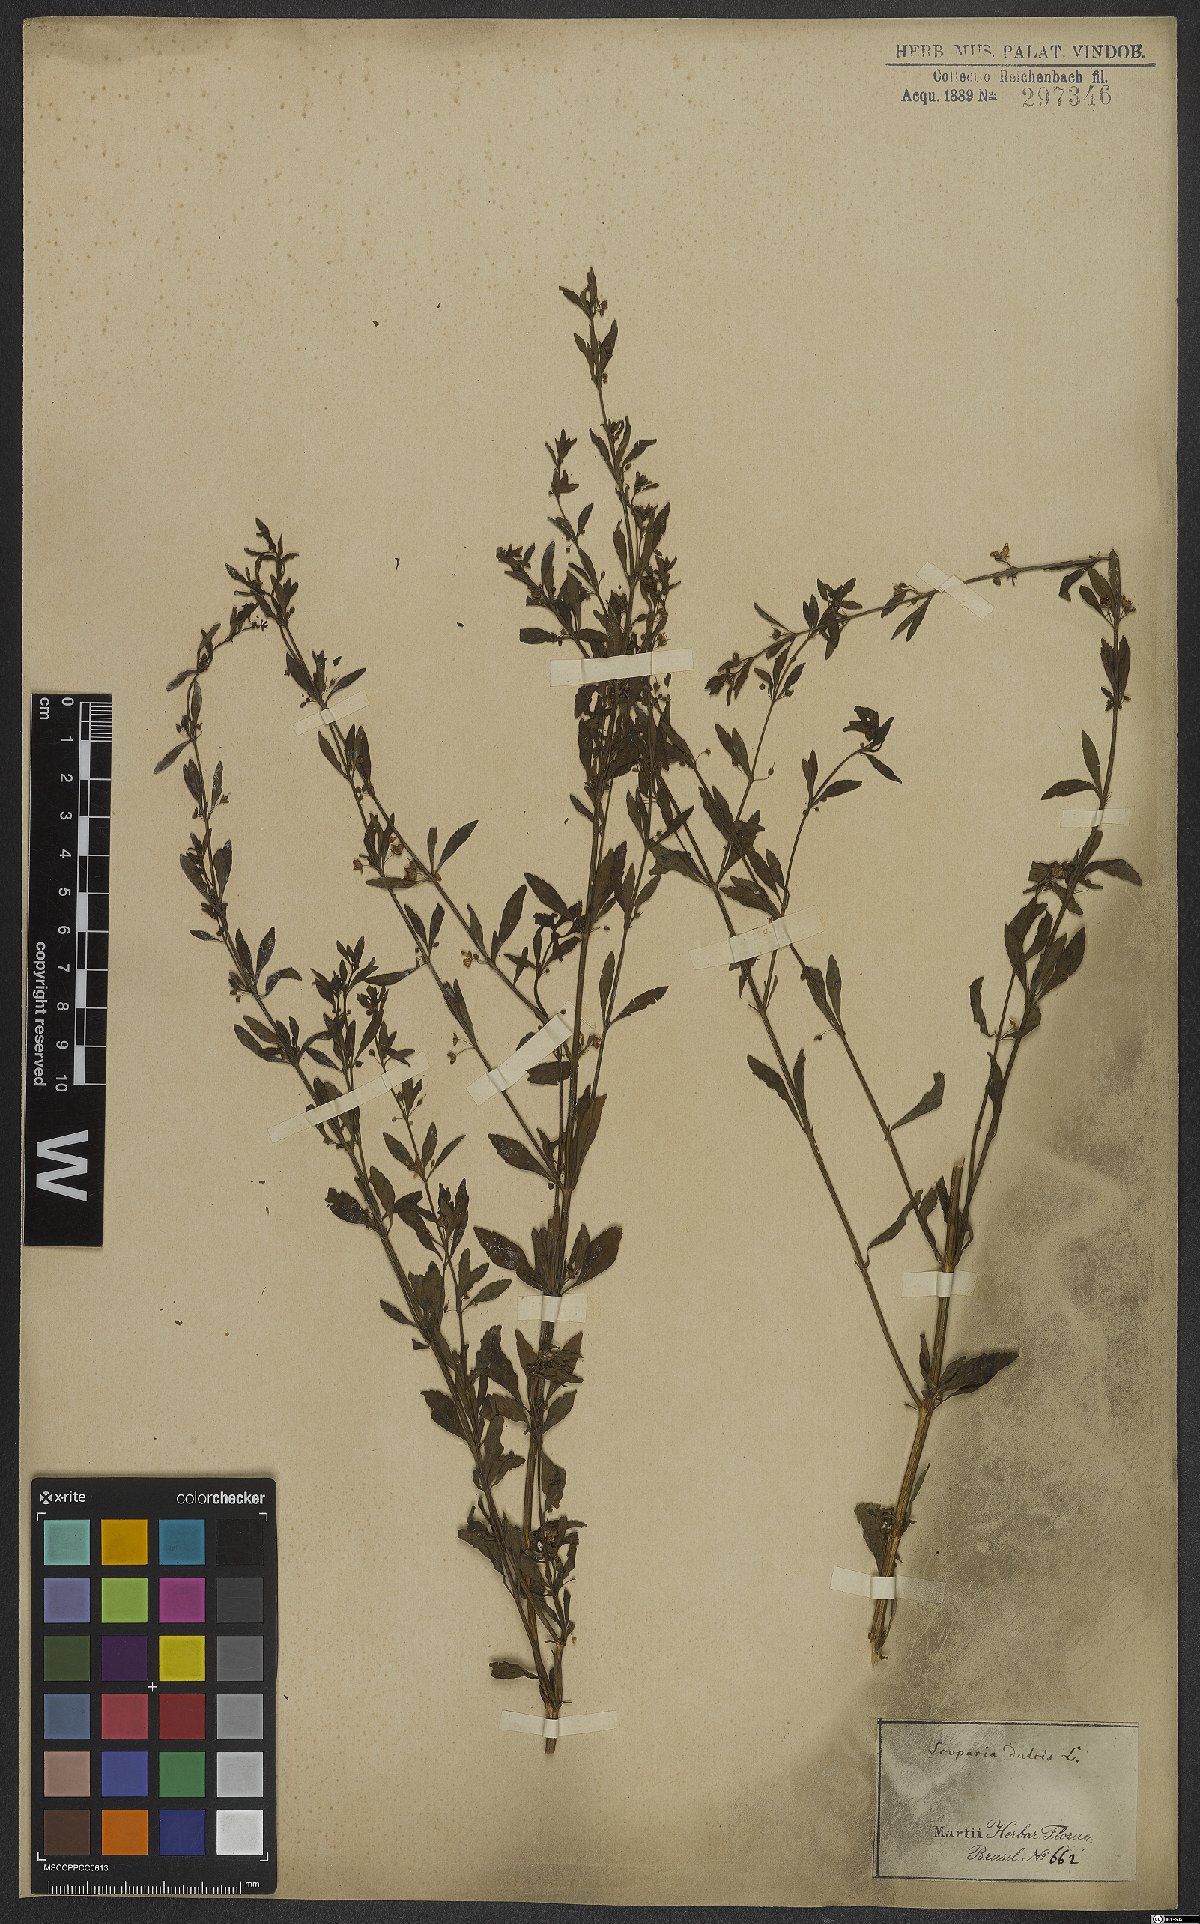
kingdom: Plantae
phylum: Tracheophyta
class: Magnoliopsida
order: Lamiales
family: Plantaginaceae
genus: Scoparia
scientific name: Scoparia dulcis
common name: Scoparia-weed
